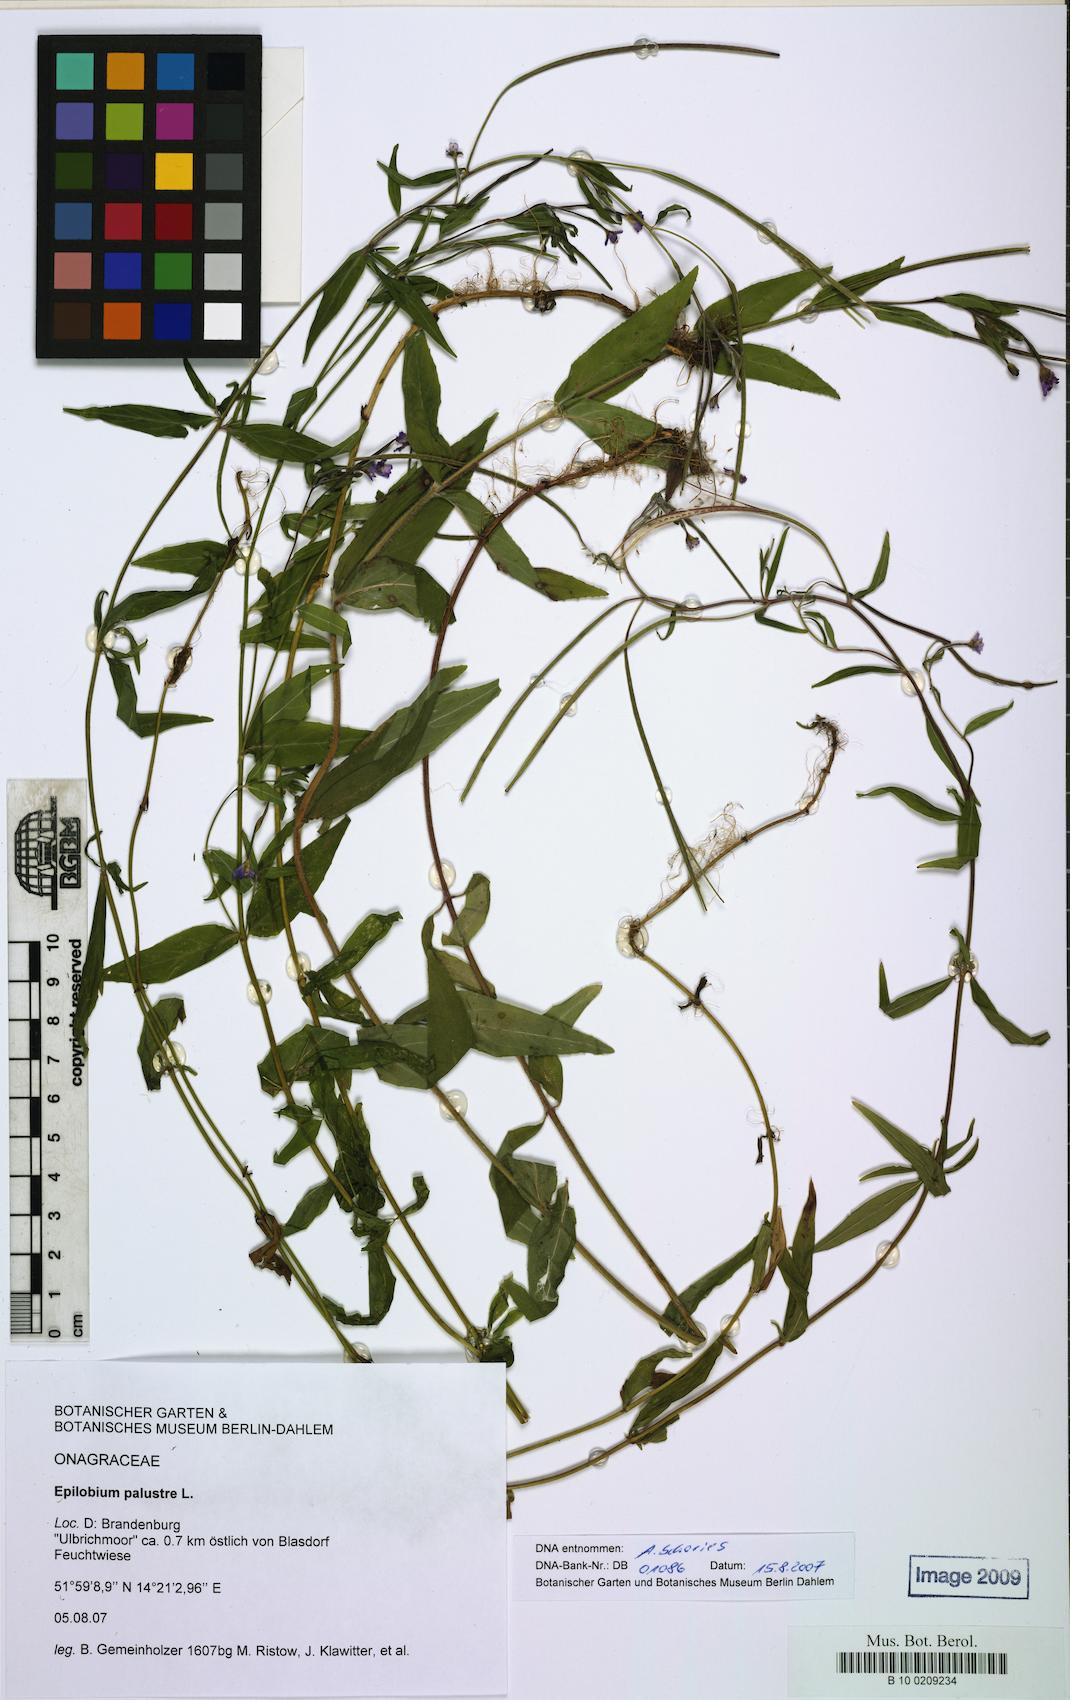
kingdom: Plantae
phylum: Tracheophyta
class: Magnoliopsida
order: Myrtales
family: Onagraceae
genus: Epilobium
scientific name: Epilobium palustre
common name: Marsh willowherb
